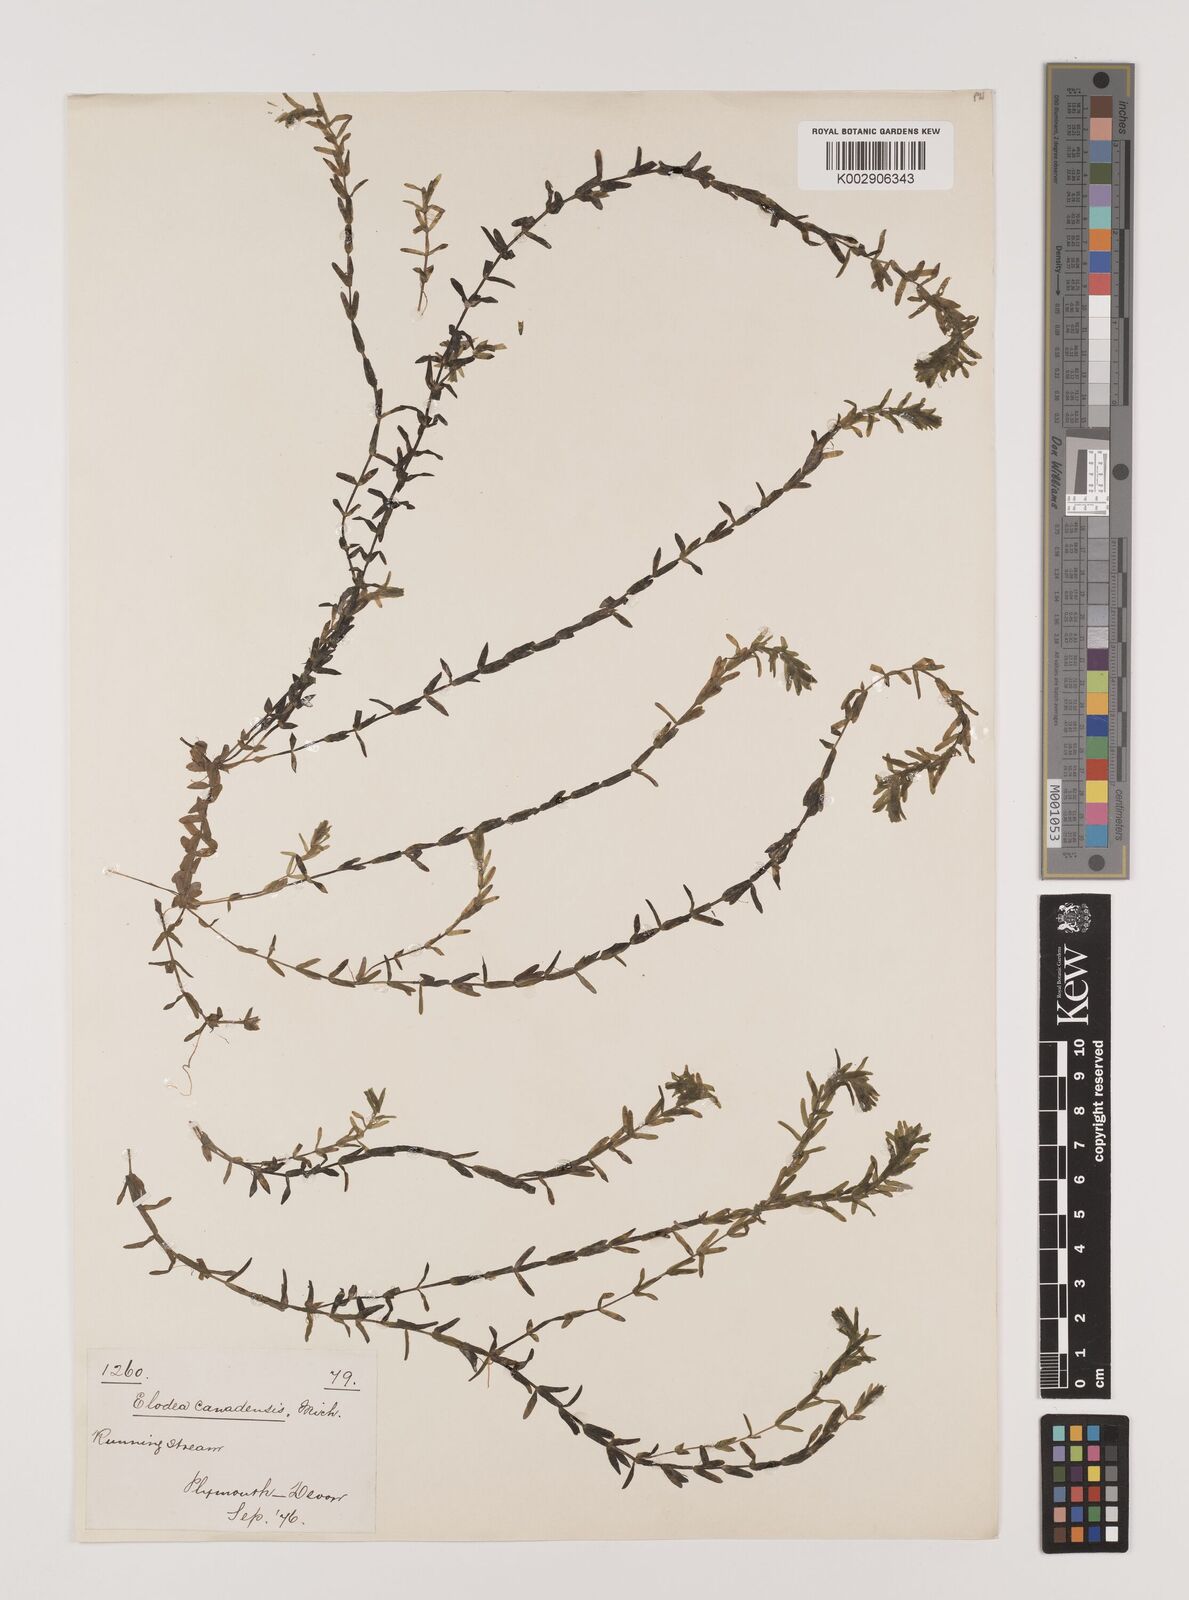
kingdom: Plantae
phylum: Tracheophyta
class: Liliopsida
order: Alismatales
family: Hydrocharitaceae
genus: Elodea
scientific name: Elodea canadensis
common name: Canadian waterweed
